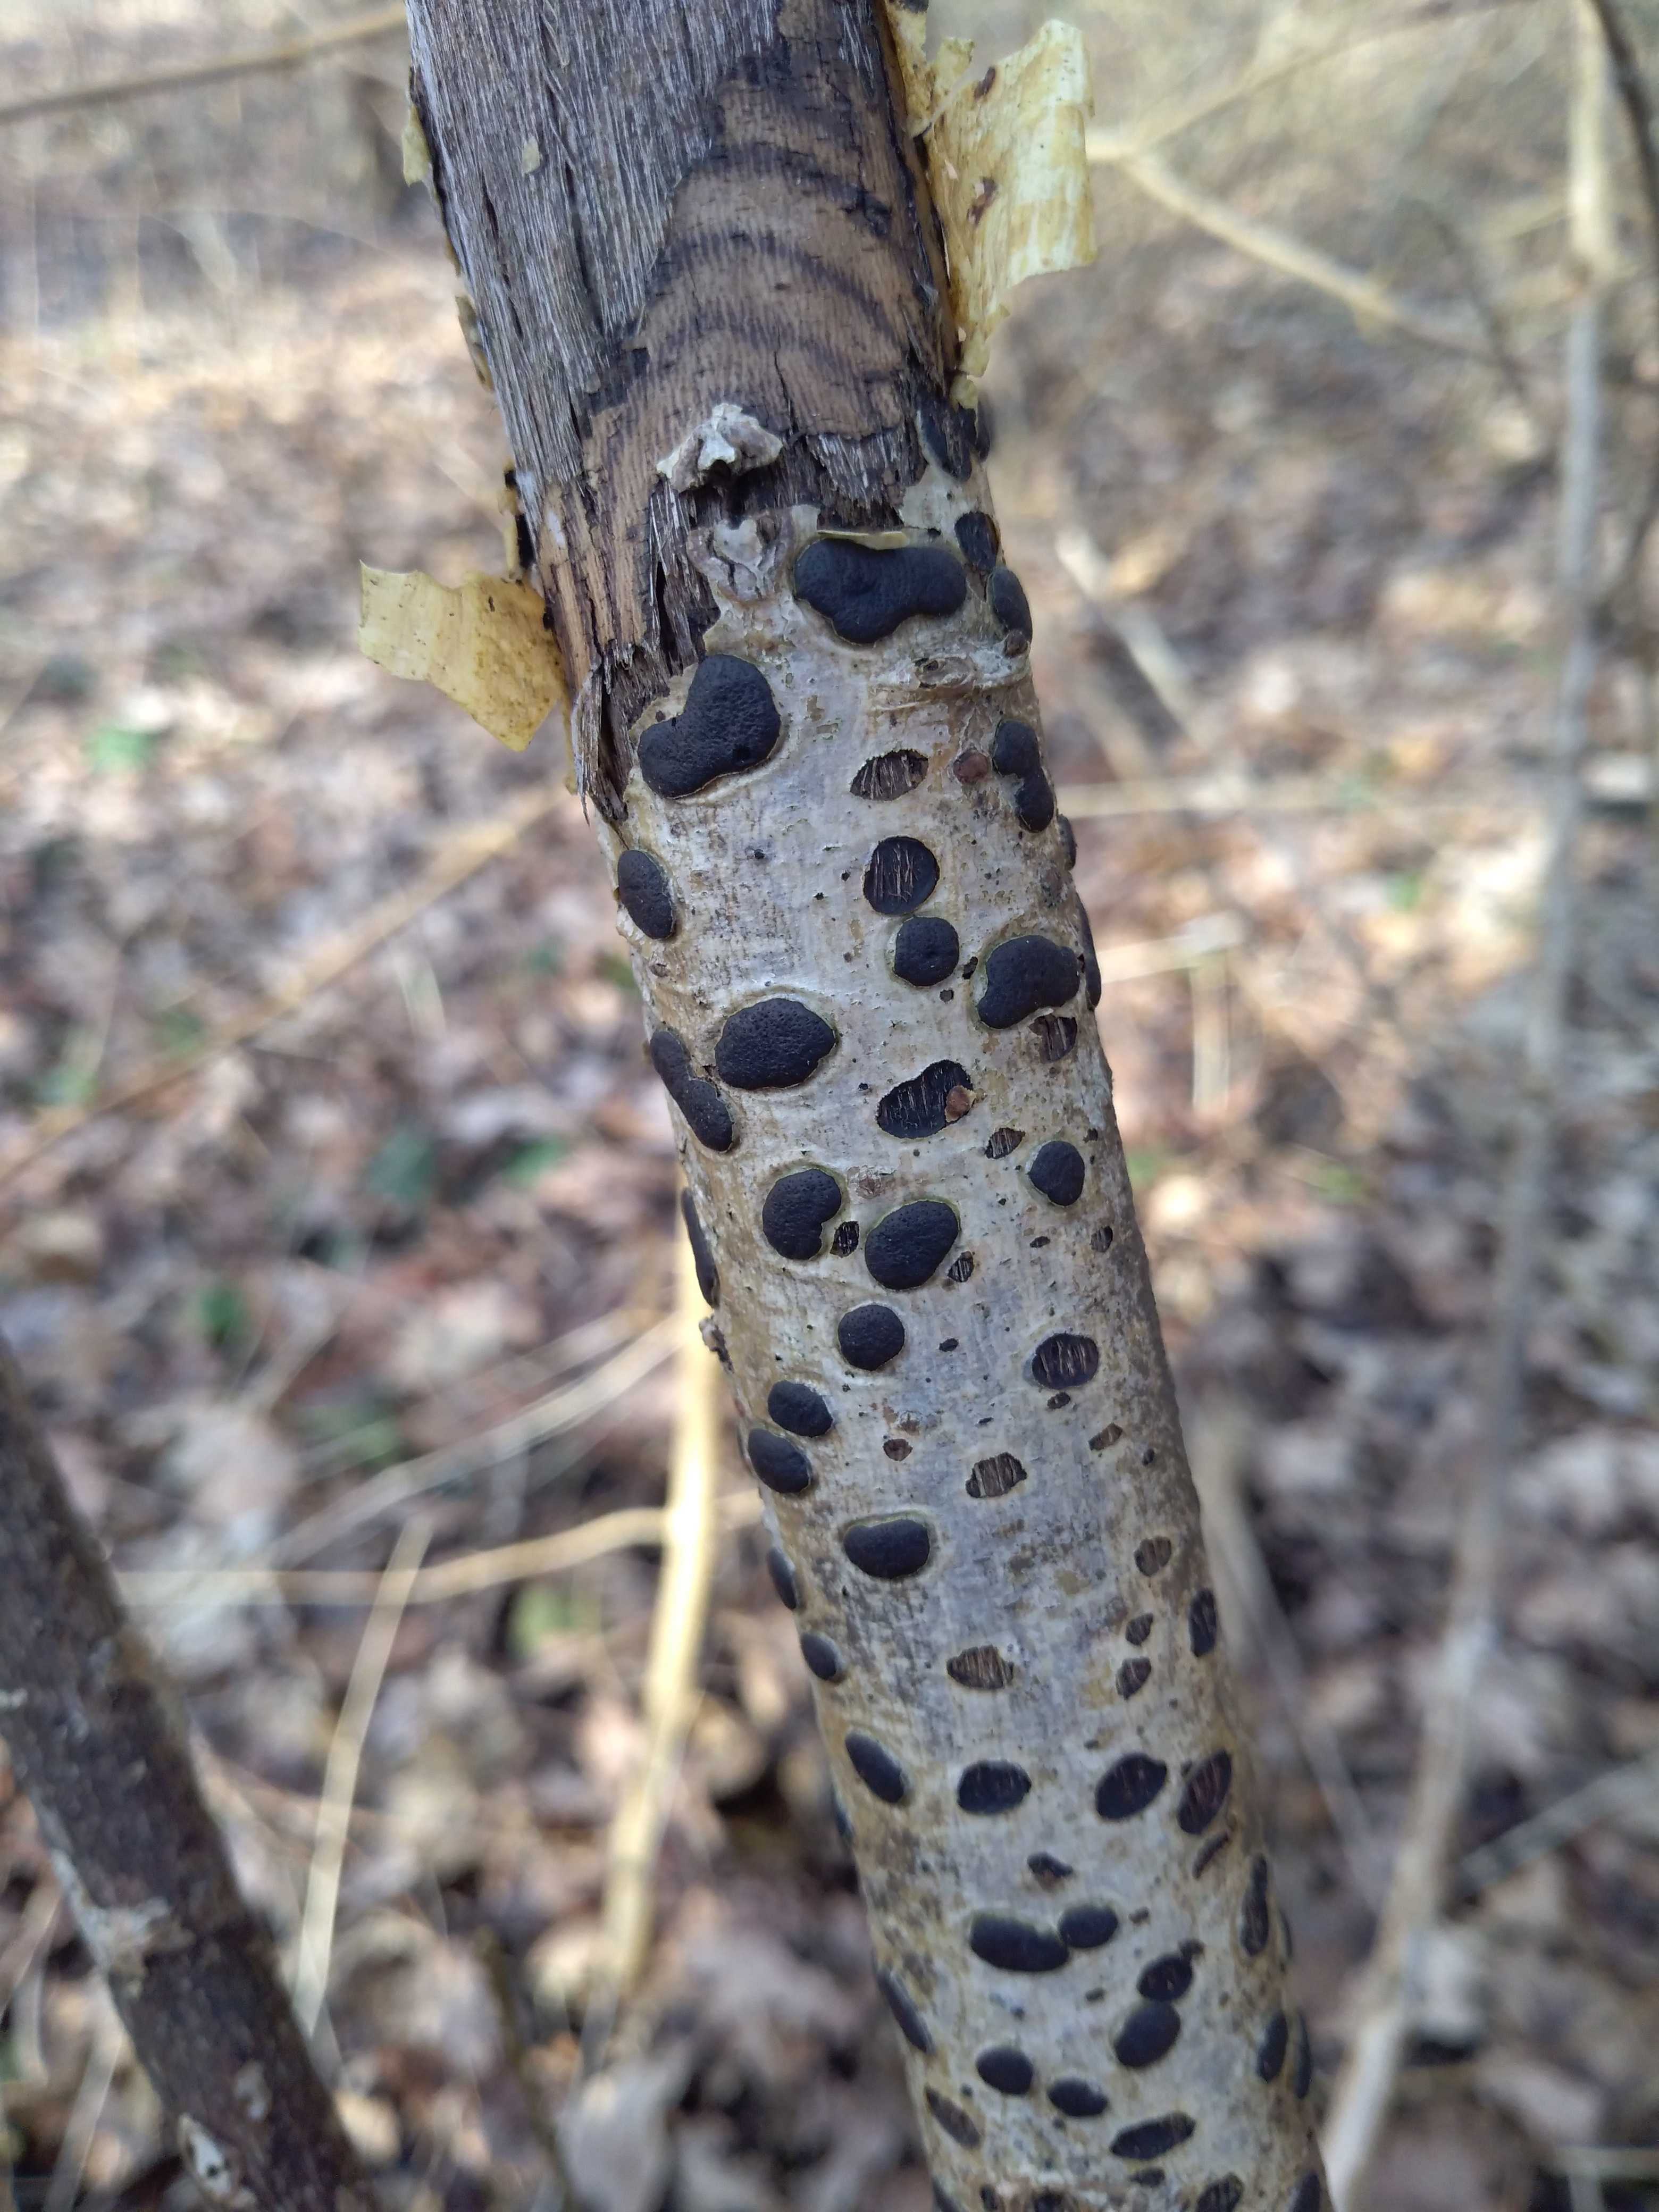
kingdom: Fungi
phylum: Ascomycota
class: Sordariomycetes
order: Xylariales
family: Diatrypaceae
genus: Diatrype
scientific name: Diatrype bullata
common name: pile-kulskorpe
